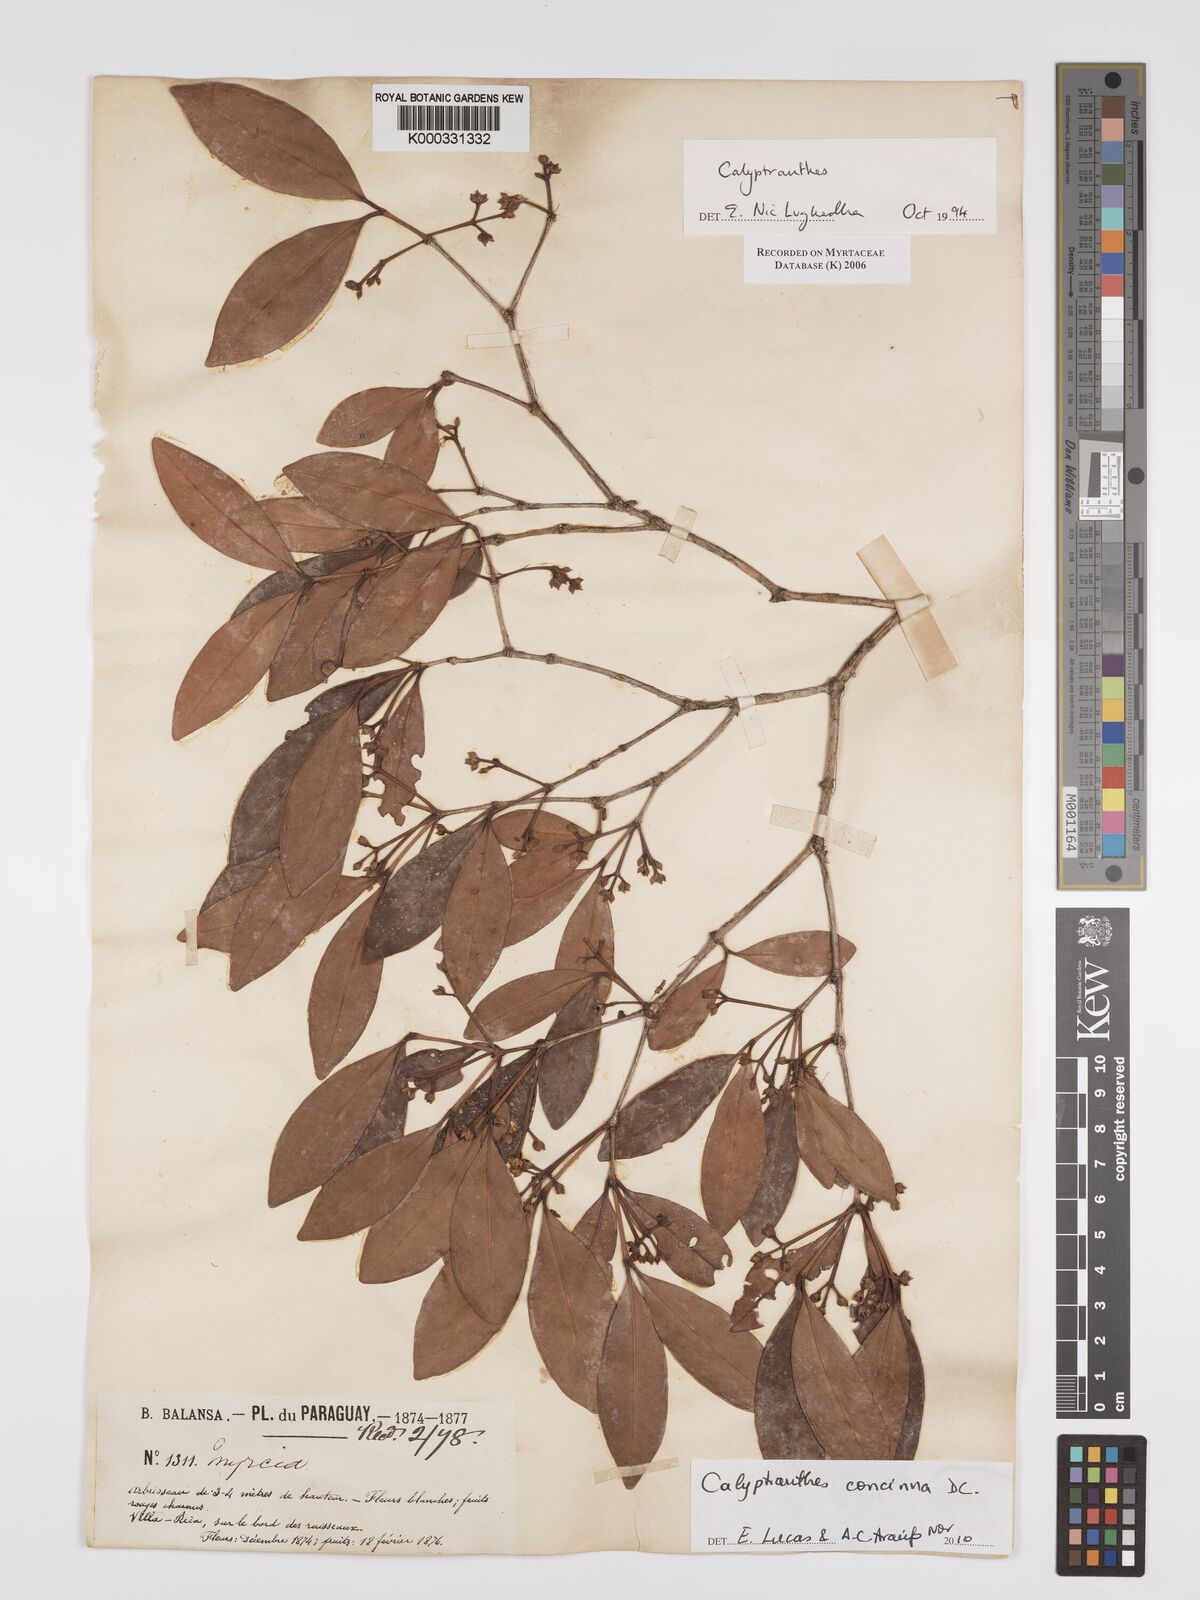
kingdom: Plantae
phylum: Tracheophyta
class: Magnoliopsida
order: Myrtales
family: Myrtaceae
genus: Calyptranthes
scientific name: Calyptranthes
